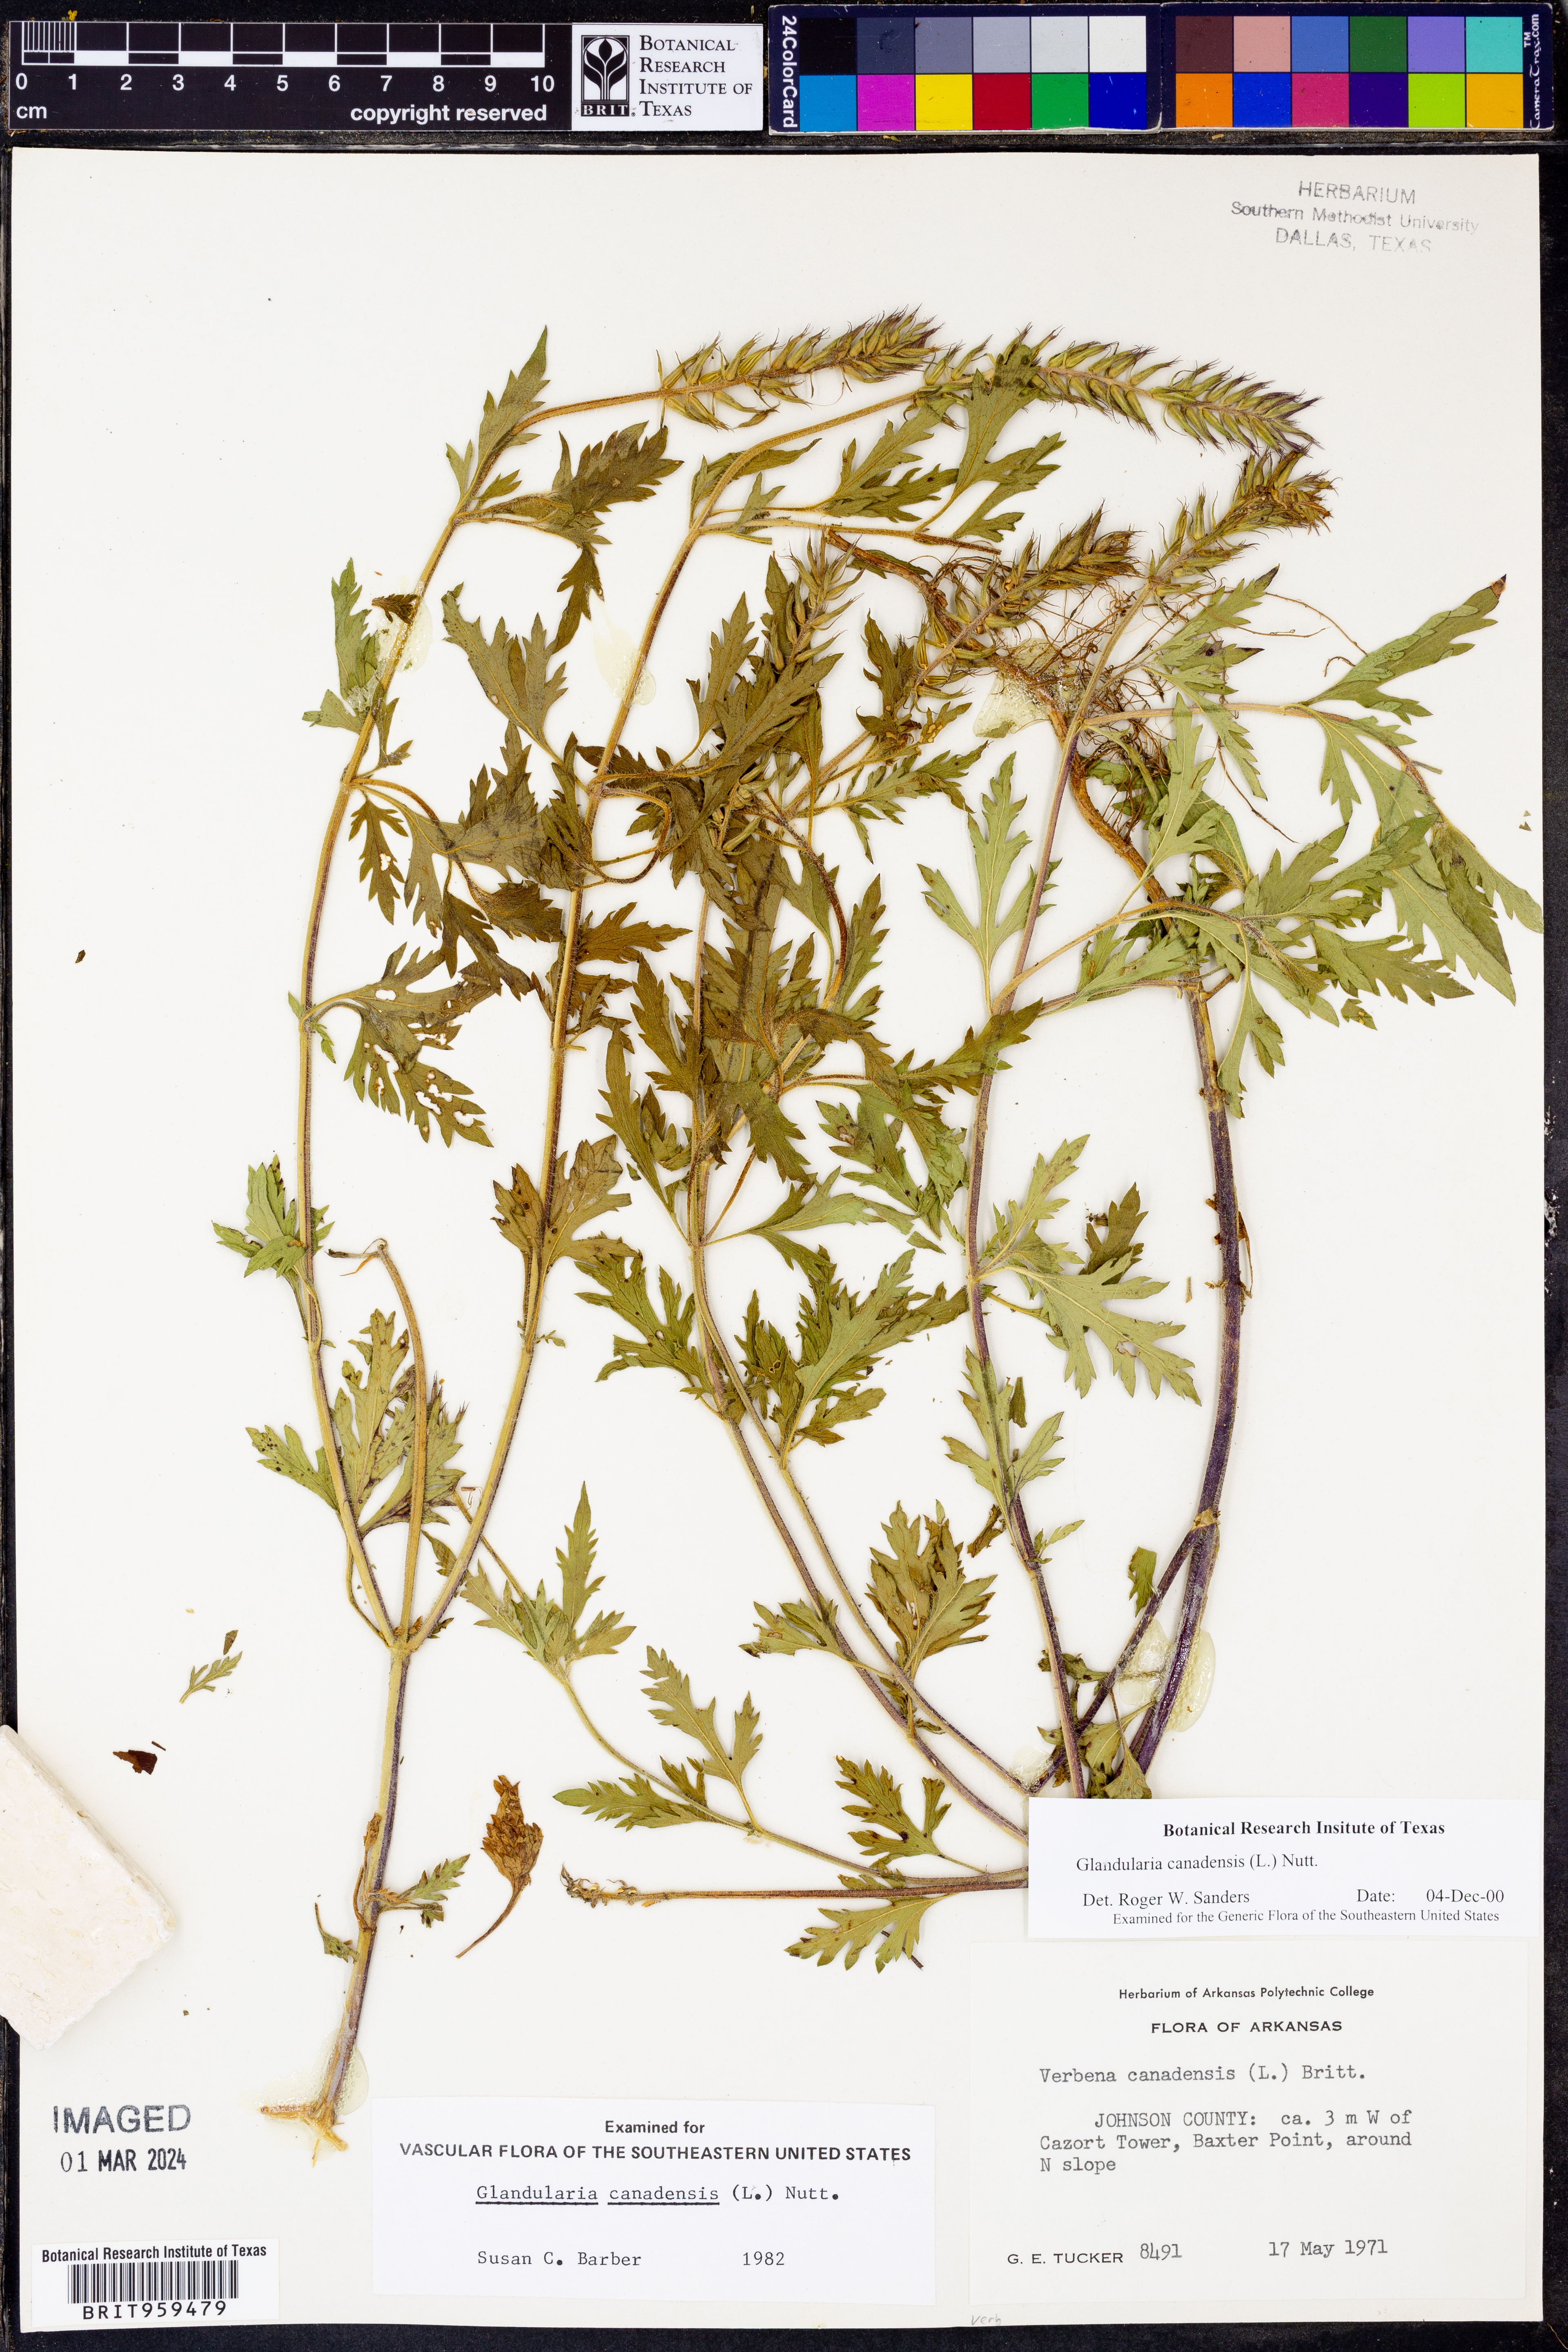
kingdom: Plantae
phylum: Tracheophyta
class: Magnoliopsida
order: Lamiales
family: Verbenaceae
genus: Verbena
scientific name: Verbena canadensis
